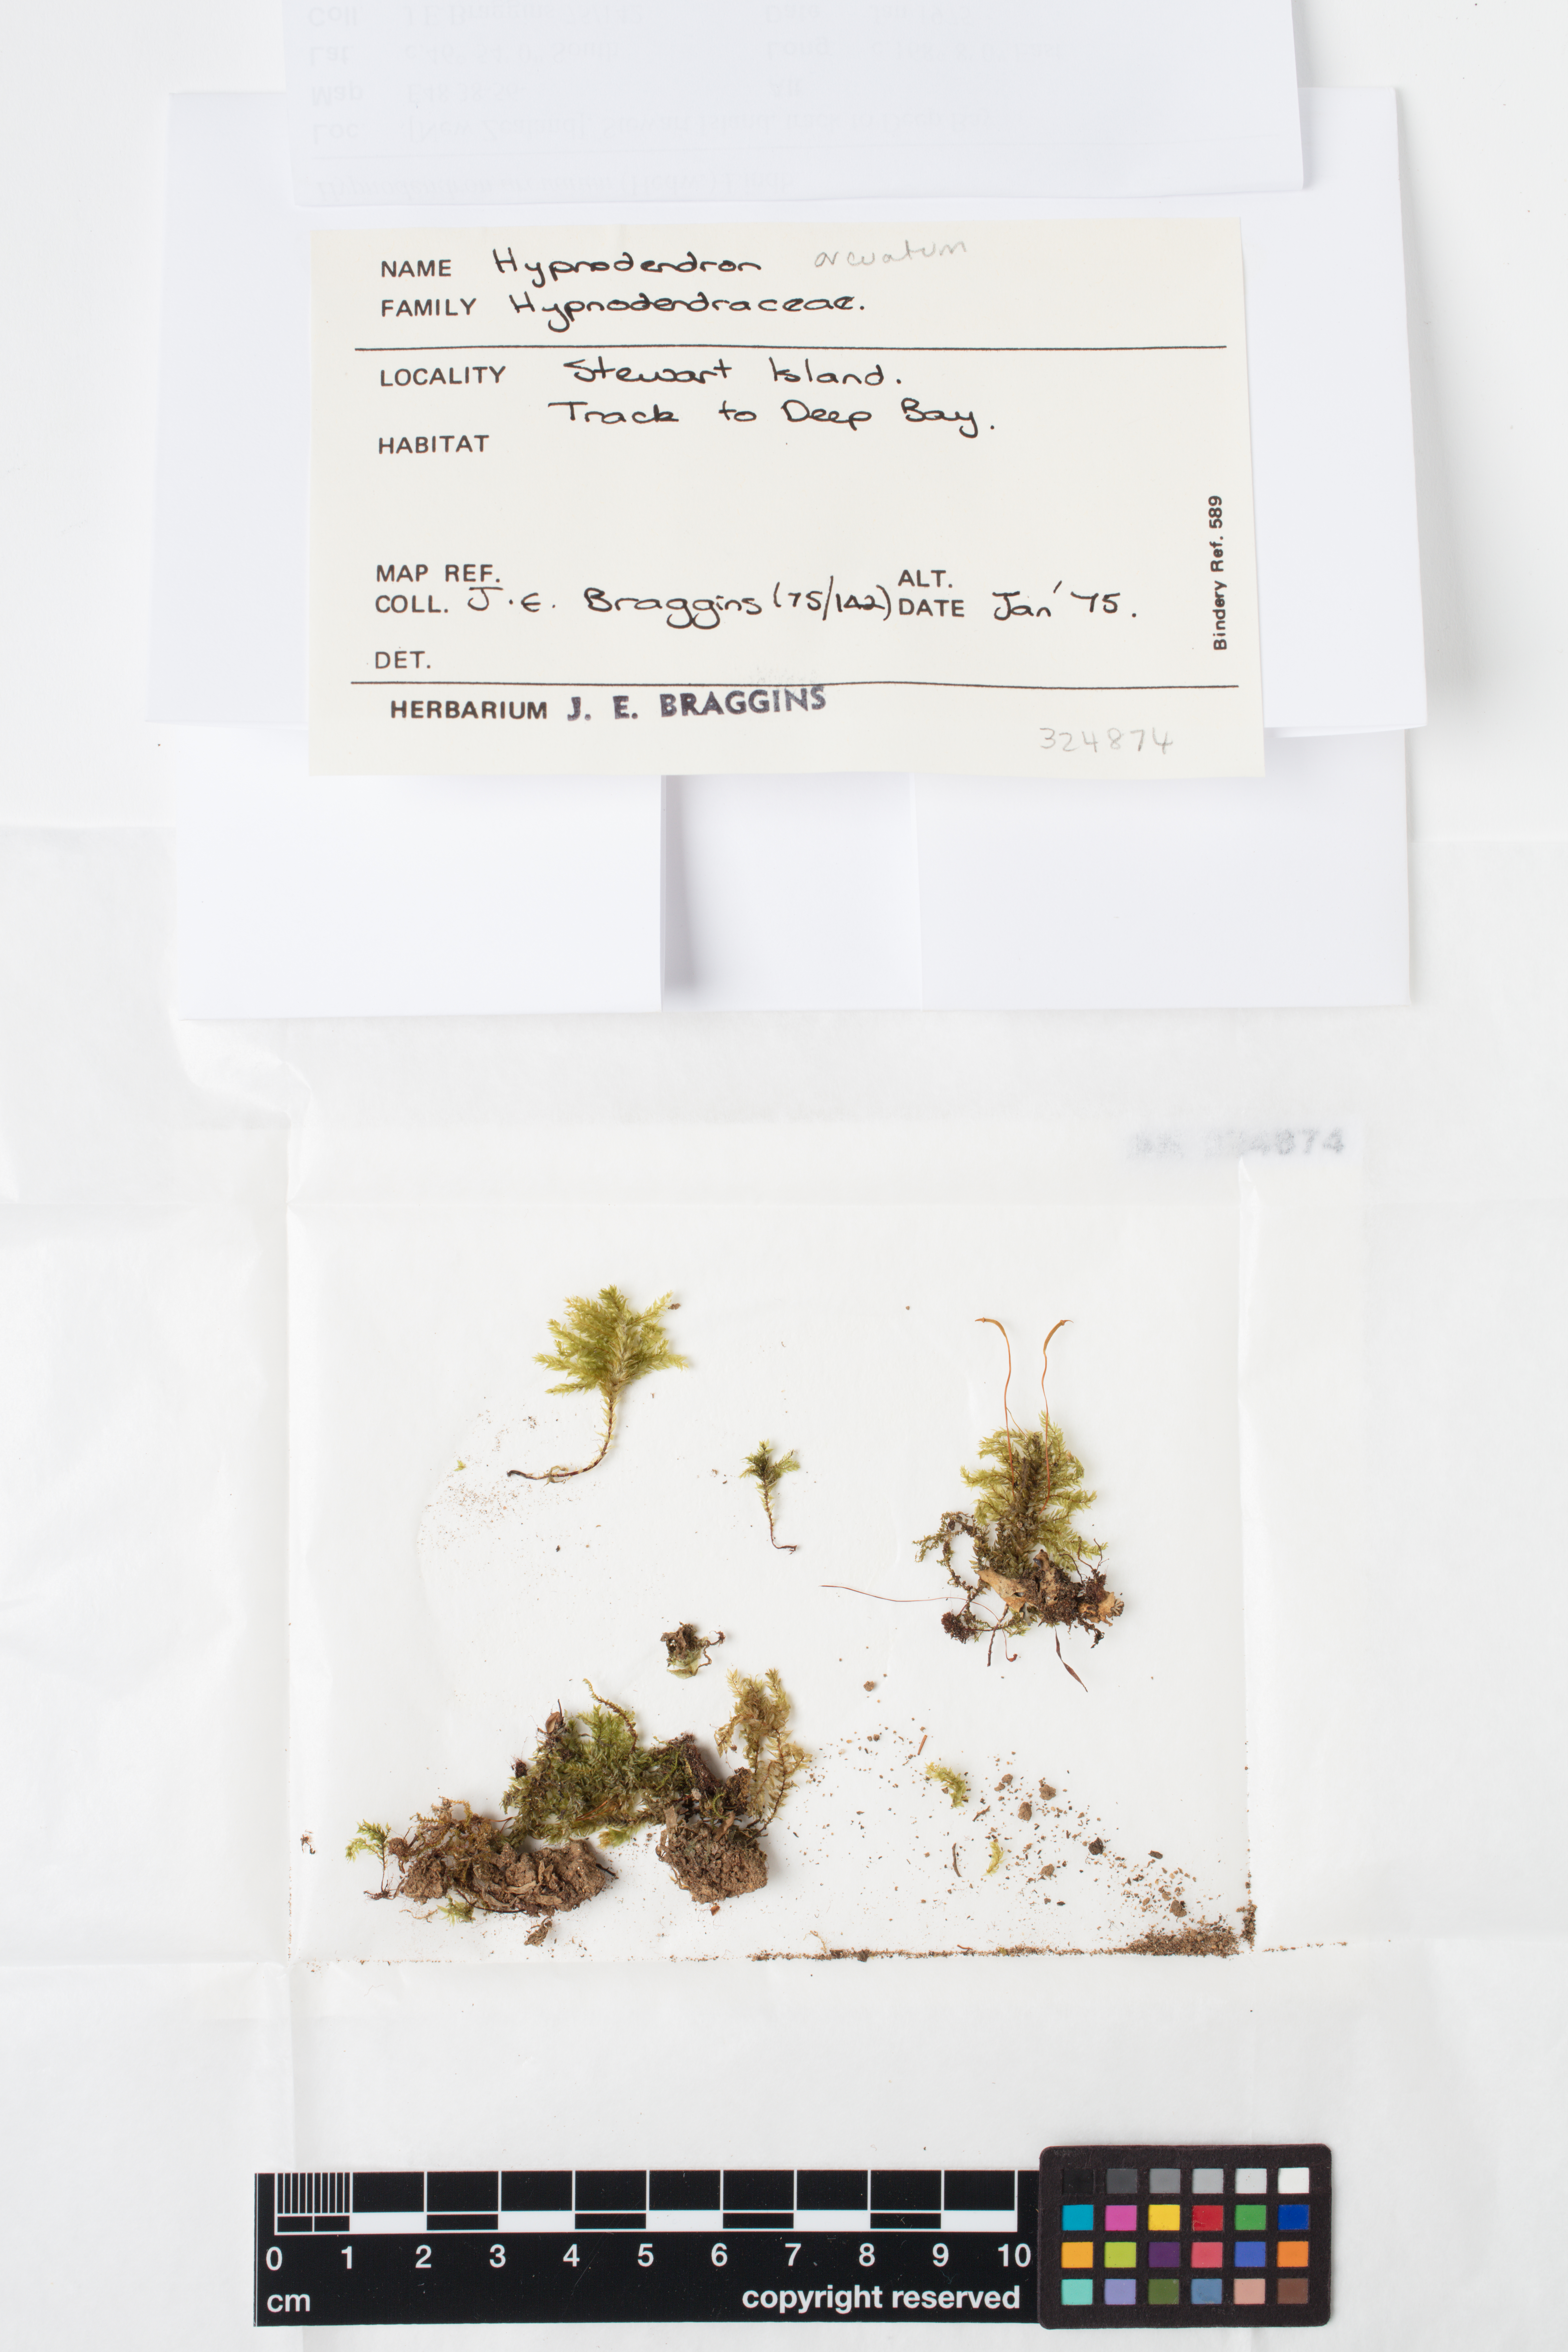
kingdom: Plantae
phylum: Bryophyta
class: Bryopsida
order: Hypnodendrales
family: Spiridentaceae
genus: Hypnodendron
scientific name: Hypnodendron arcuatum
